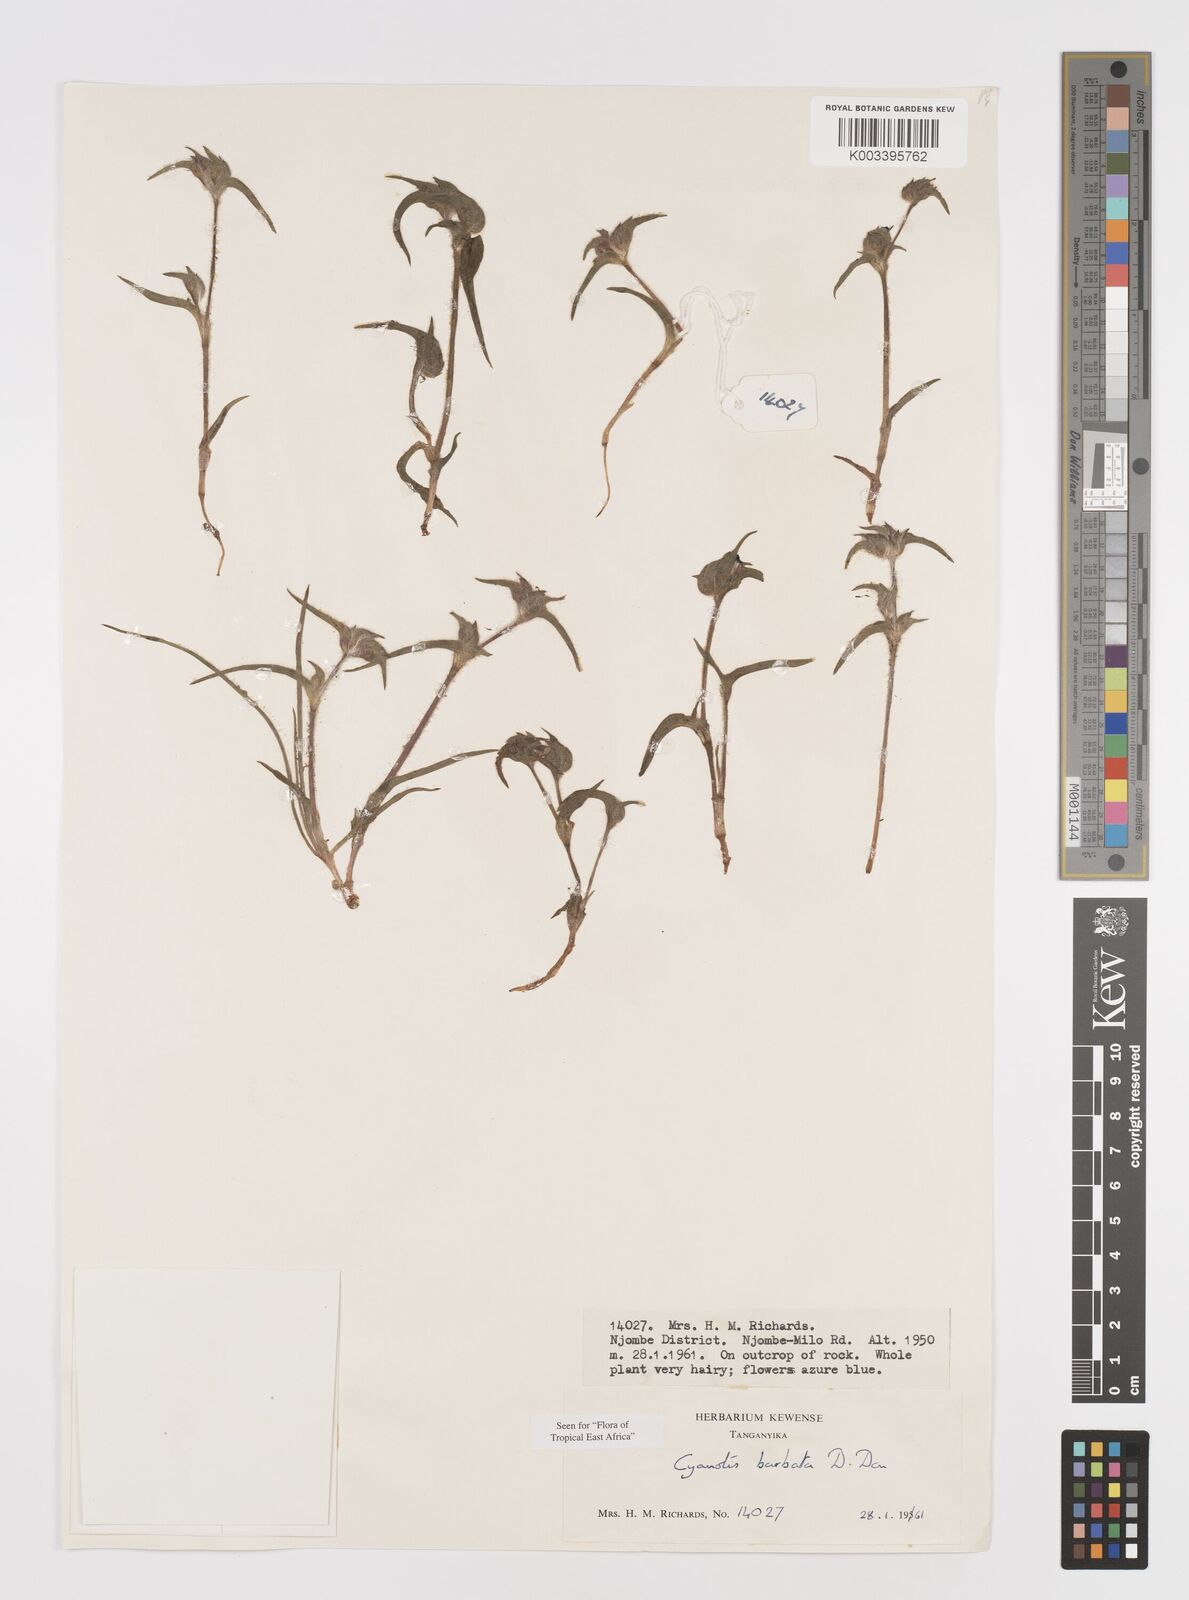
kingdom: Plantae
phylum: Tracheophyta
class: Liliopsida
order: Commelinales
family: Commelinaceae
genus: Cyanotis
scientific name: Cyanotis vaga
